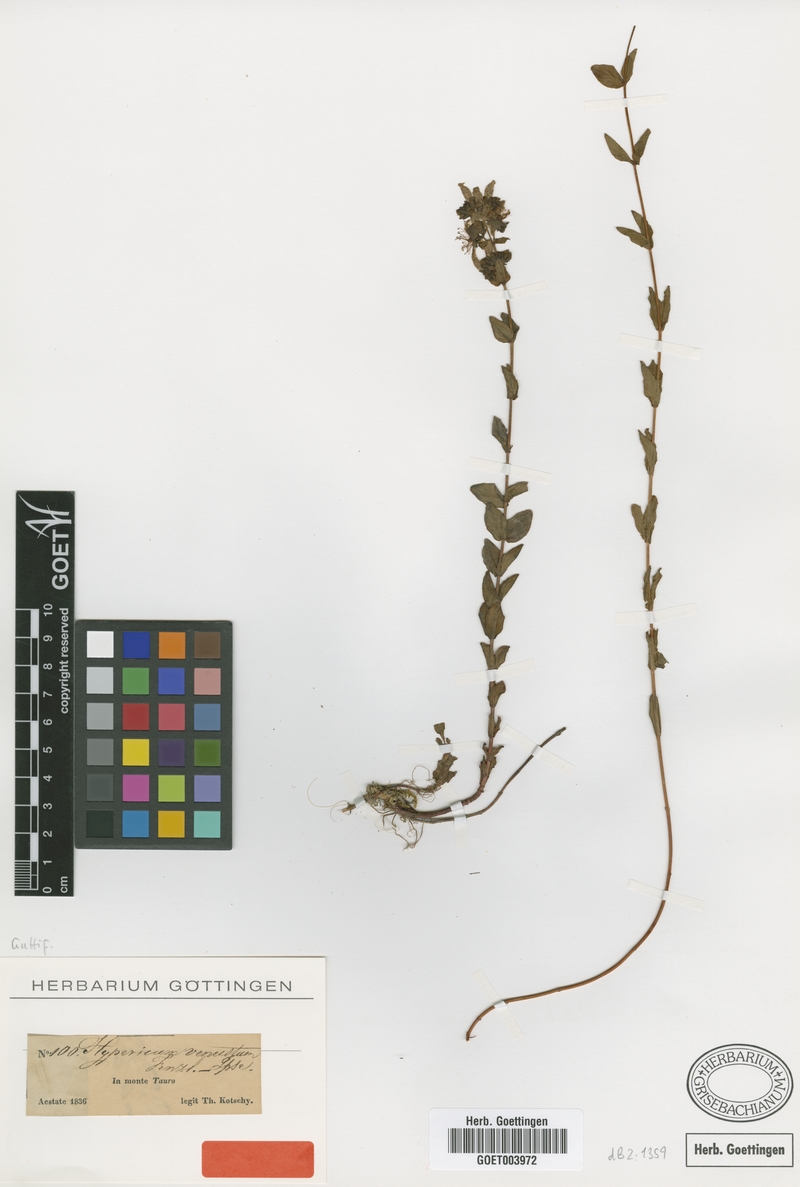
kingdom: Plantae
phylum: Tracheophyta
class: Magnoliopsida
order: Malpighiales
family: Hypericaceae
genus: Hypericum
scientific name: Hypericum venustum
